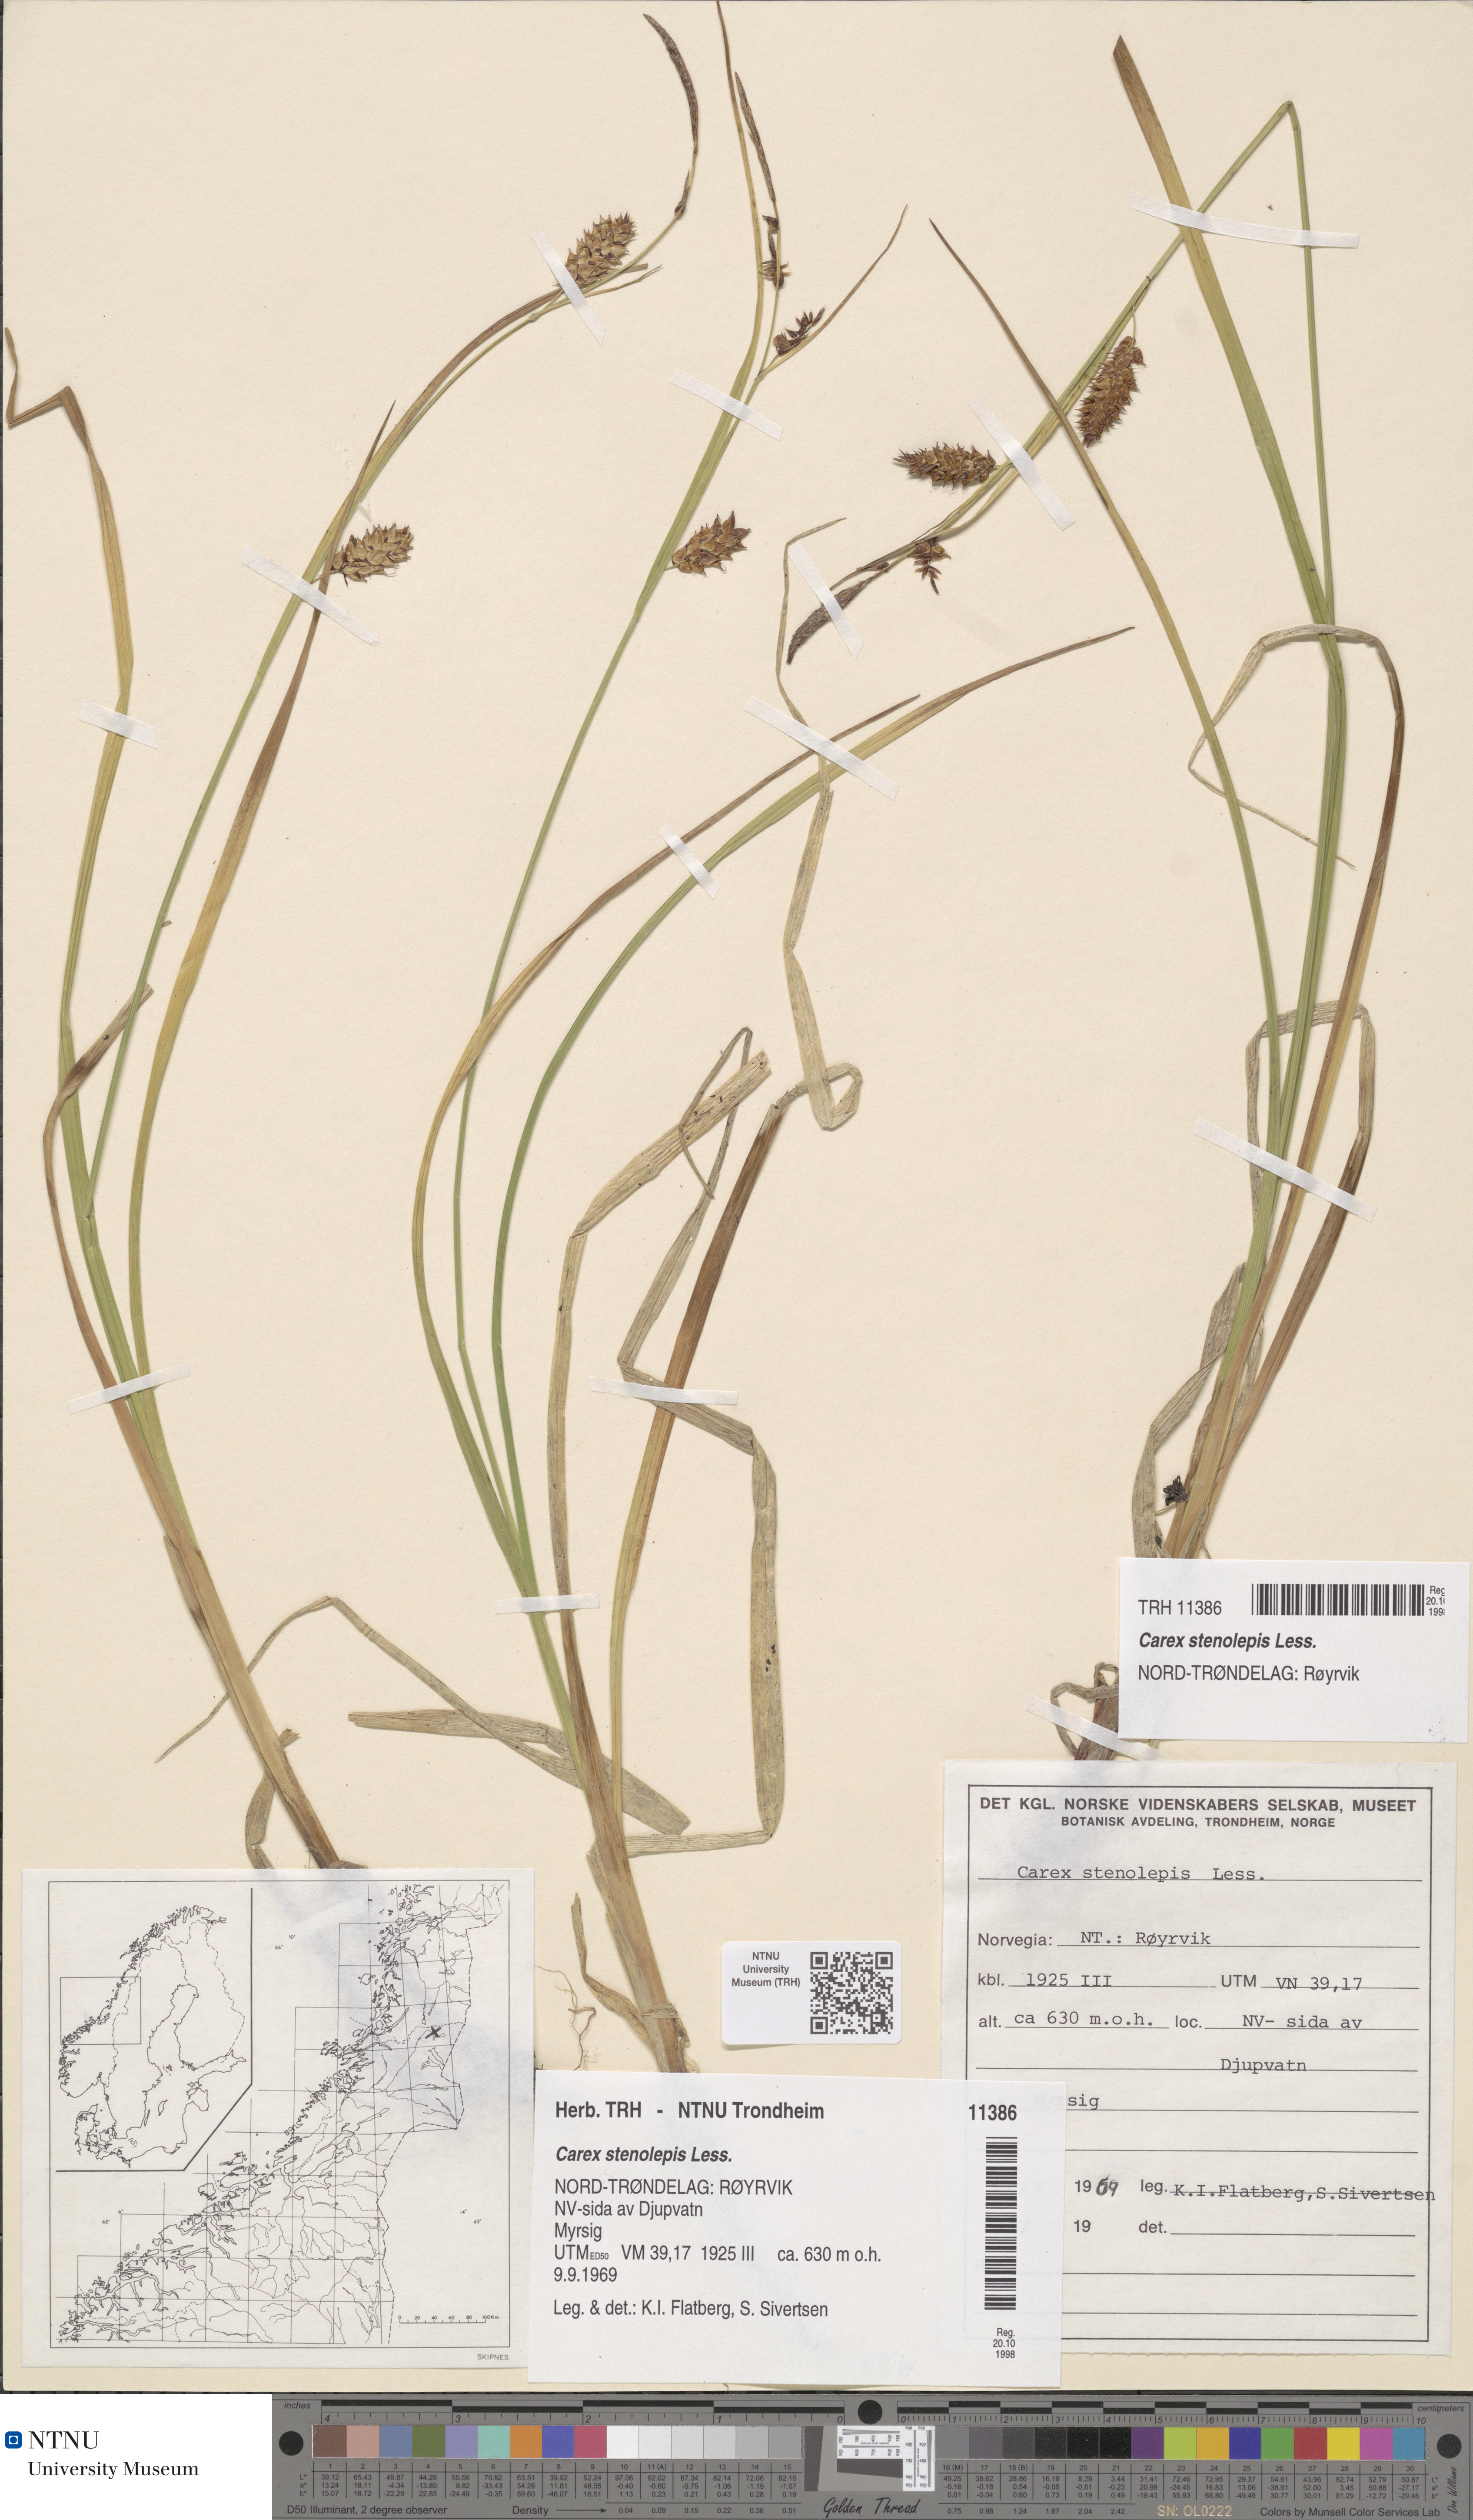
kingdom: Plantae
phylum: Tracheophyta
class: Liliopsida
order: Poales
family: Cyperaceae
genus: Carex
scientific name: Carex grahamii
